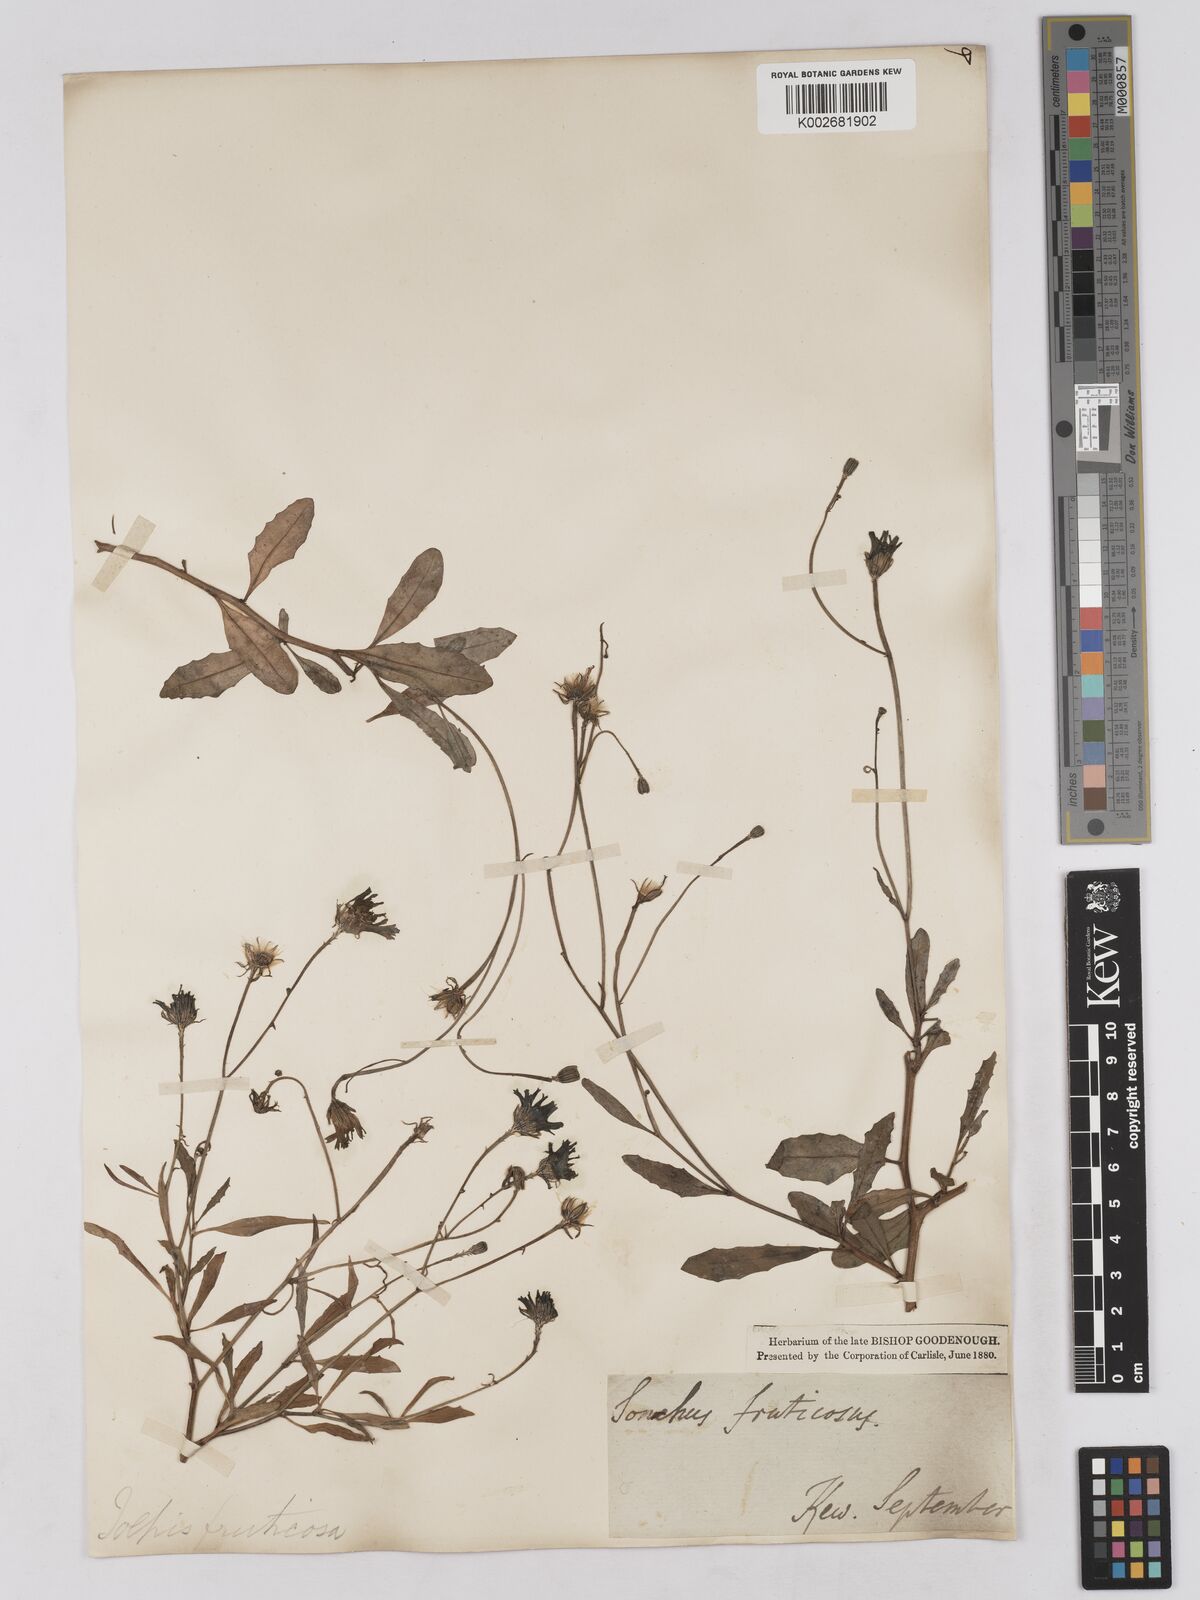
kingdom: Plantae
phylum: Tracheophyta
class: Magnoliopsida
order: Asterales
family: Asteraceae
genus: Tolpis
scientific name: Tolpis succulenta
